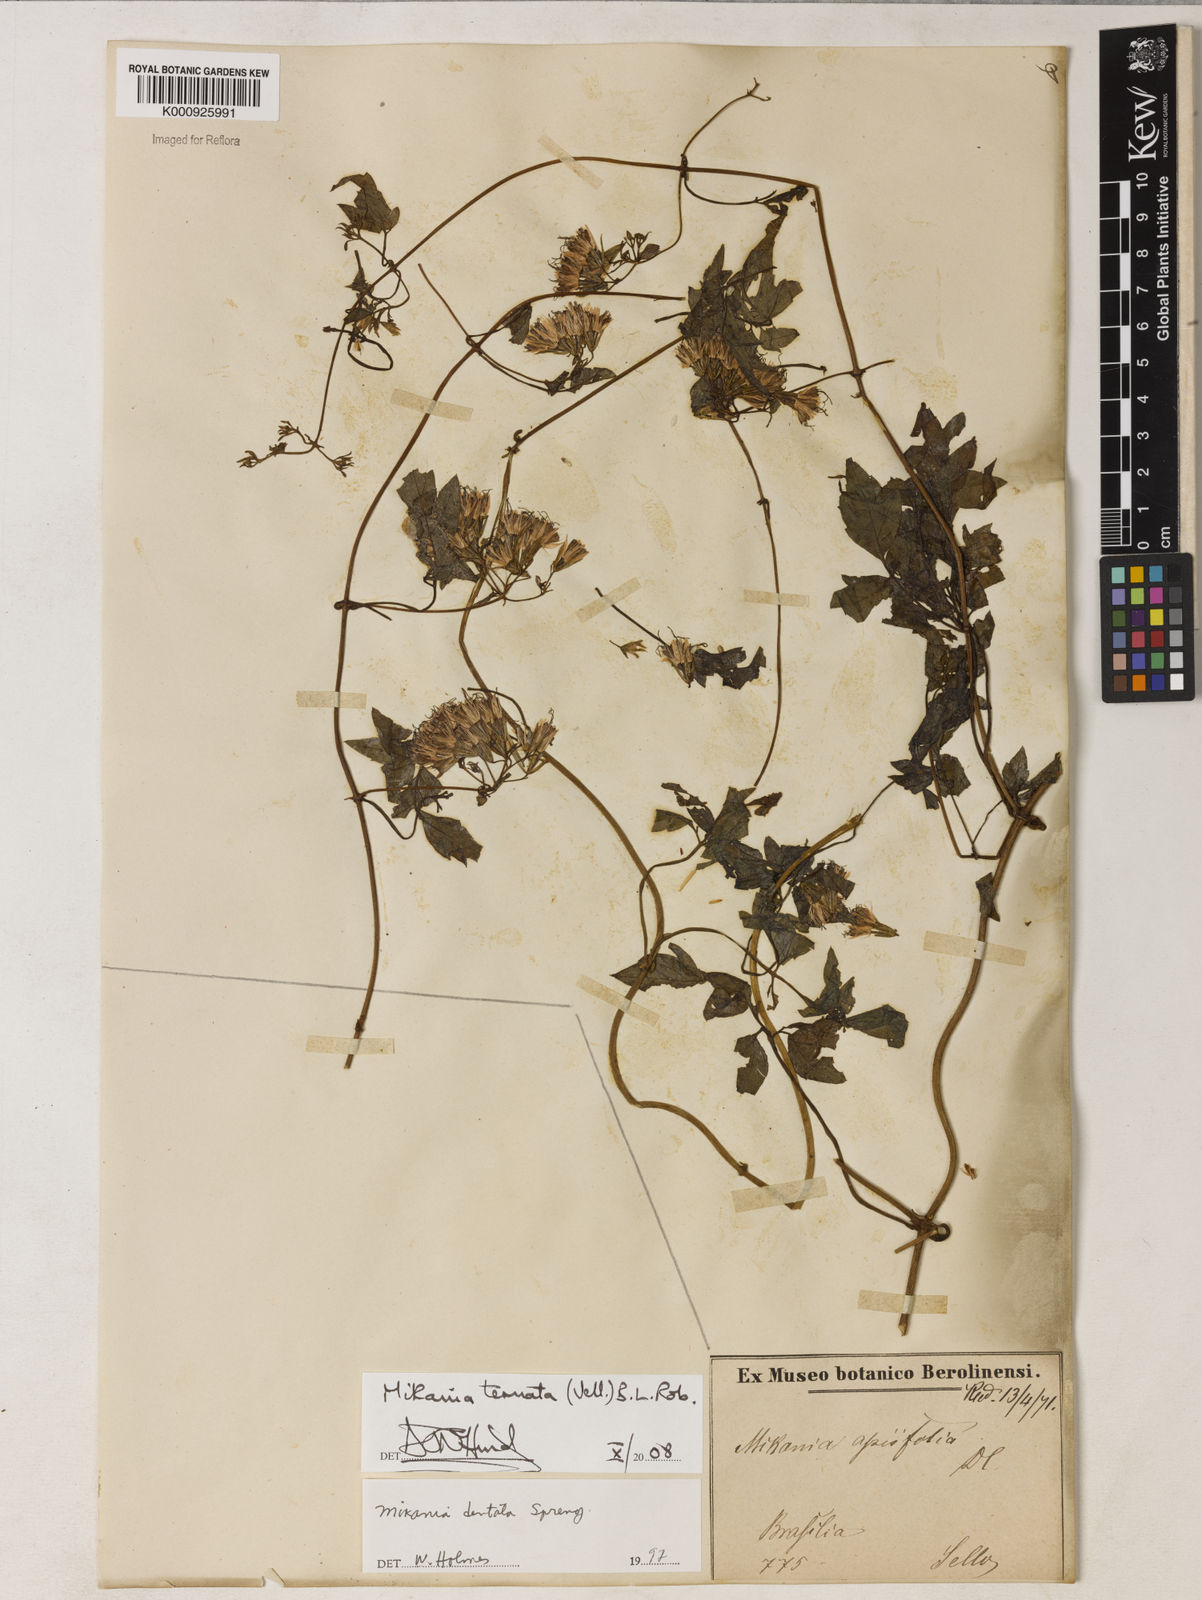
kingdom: Plantae
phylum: Tracheophyta
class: Magnoliopsida
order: Asterales
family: Asteraceae
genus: Mikania
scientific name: Mikania ternata
